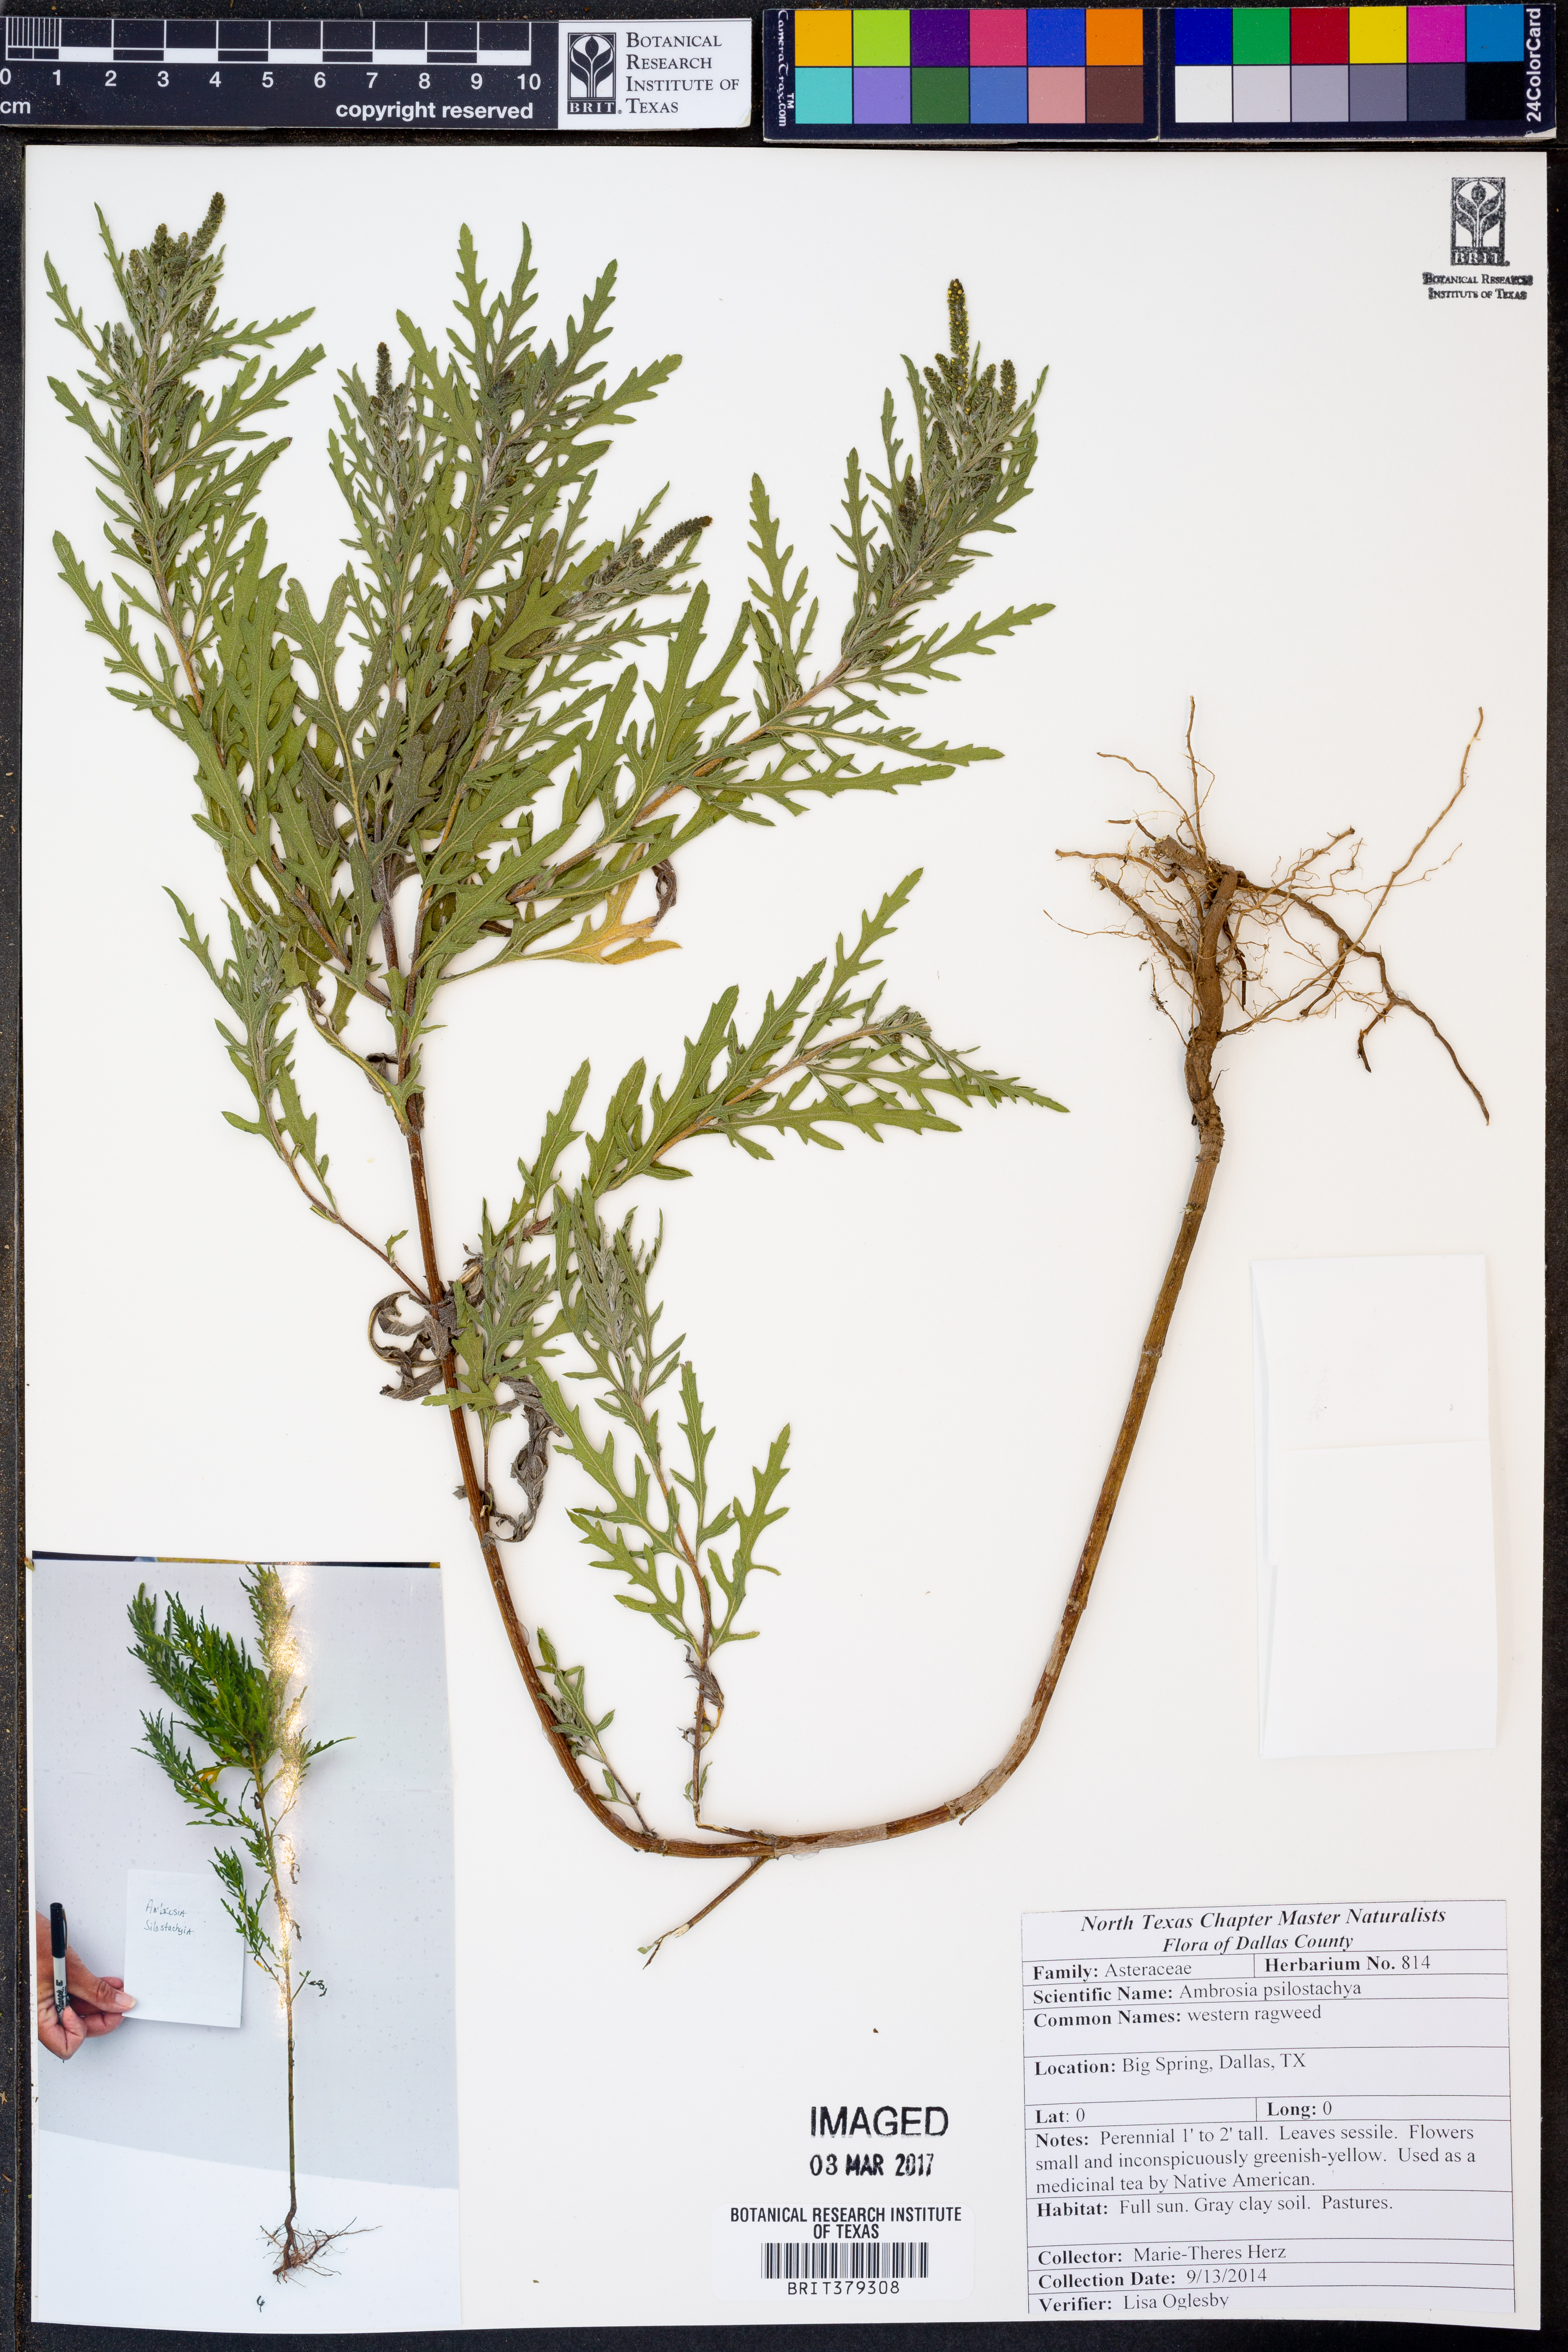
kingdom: Plantae
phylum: Tracheophyta
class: Magnoliopsida
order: Asterales
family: Asteraceae
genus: Ambrosia
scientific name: Ambrosia psilostachya
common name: Perennial ragweed
